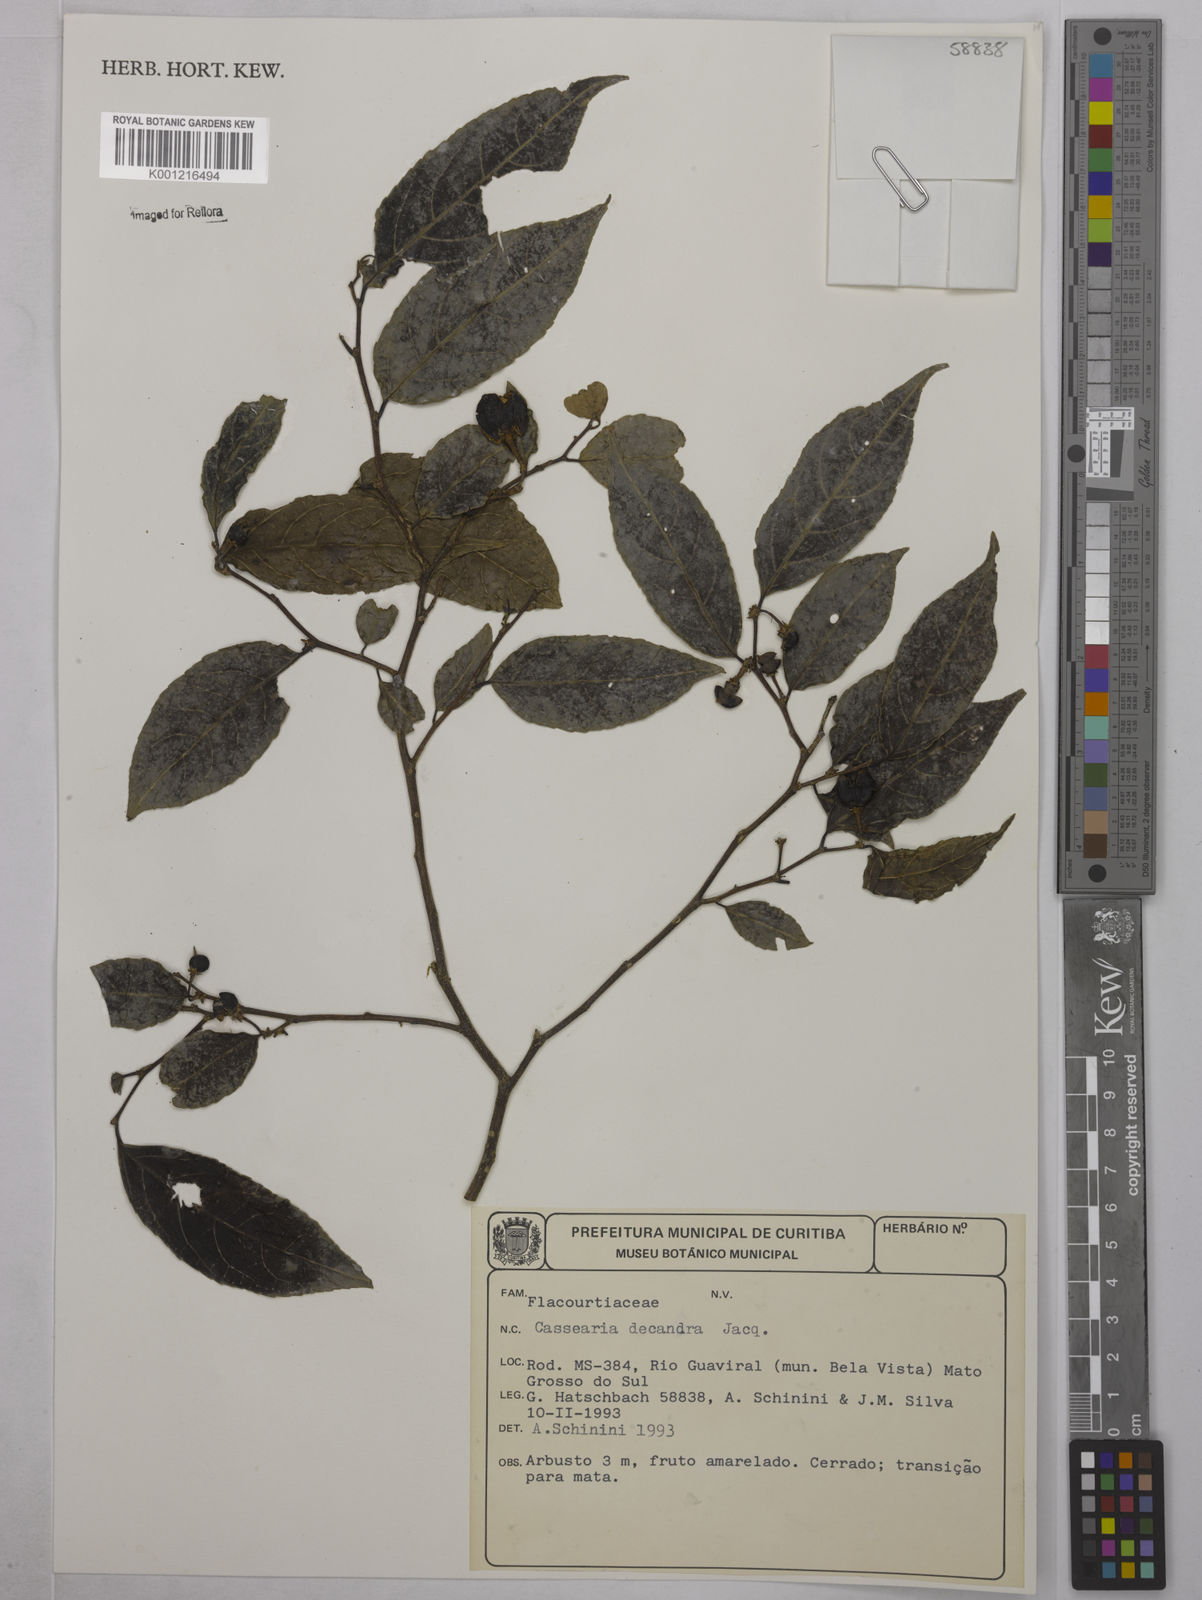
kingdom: Plantae
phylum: Tracheophyta
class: Magnoliopsida
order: Malpighiales
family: Salicaceae
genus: Casearia
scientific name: Casearia decandra
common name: Crack open
